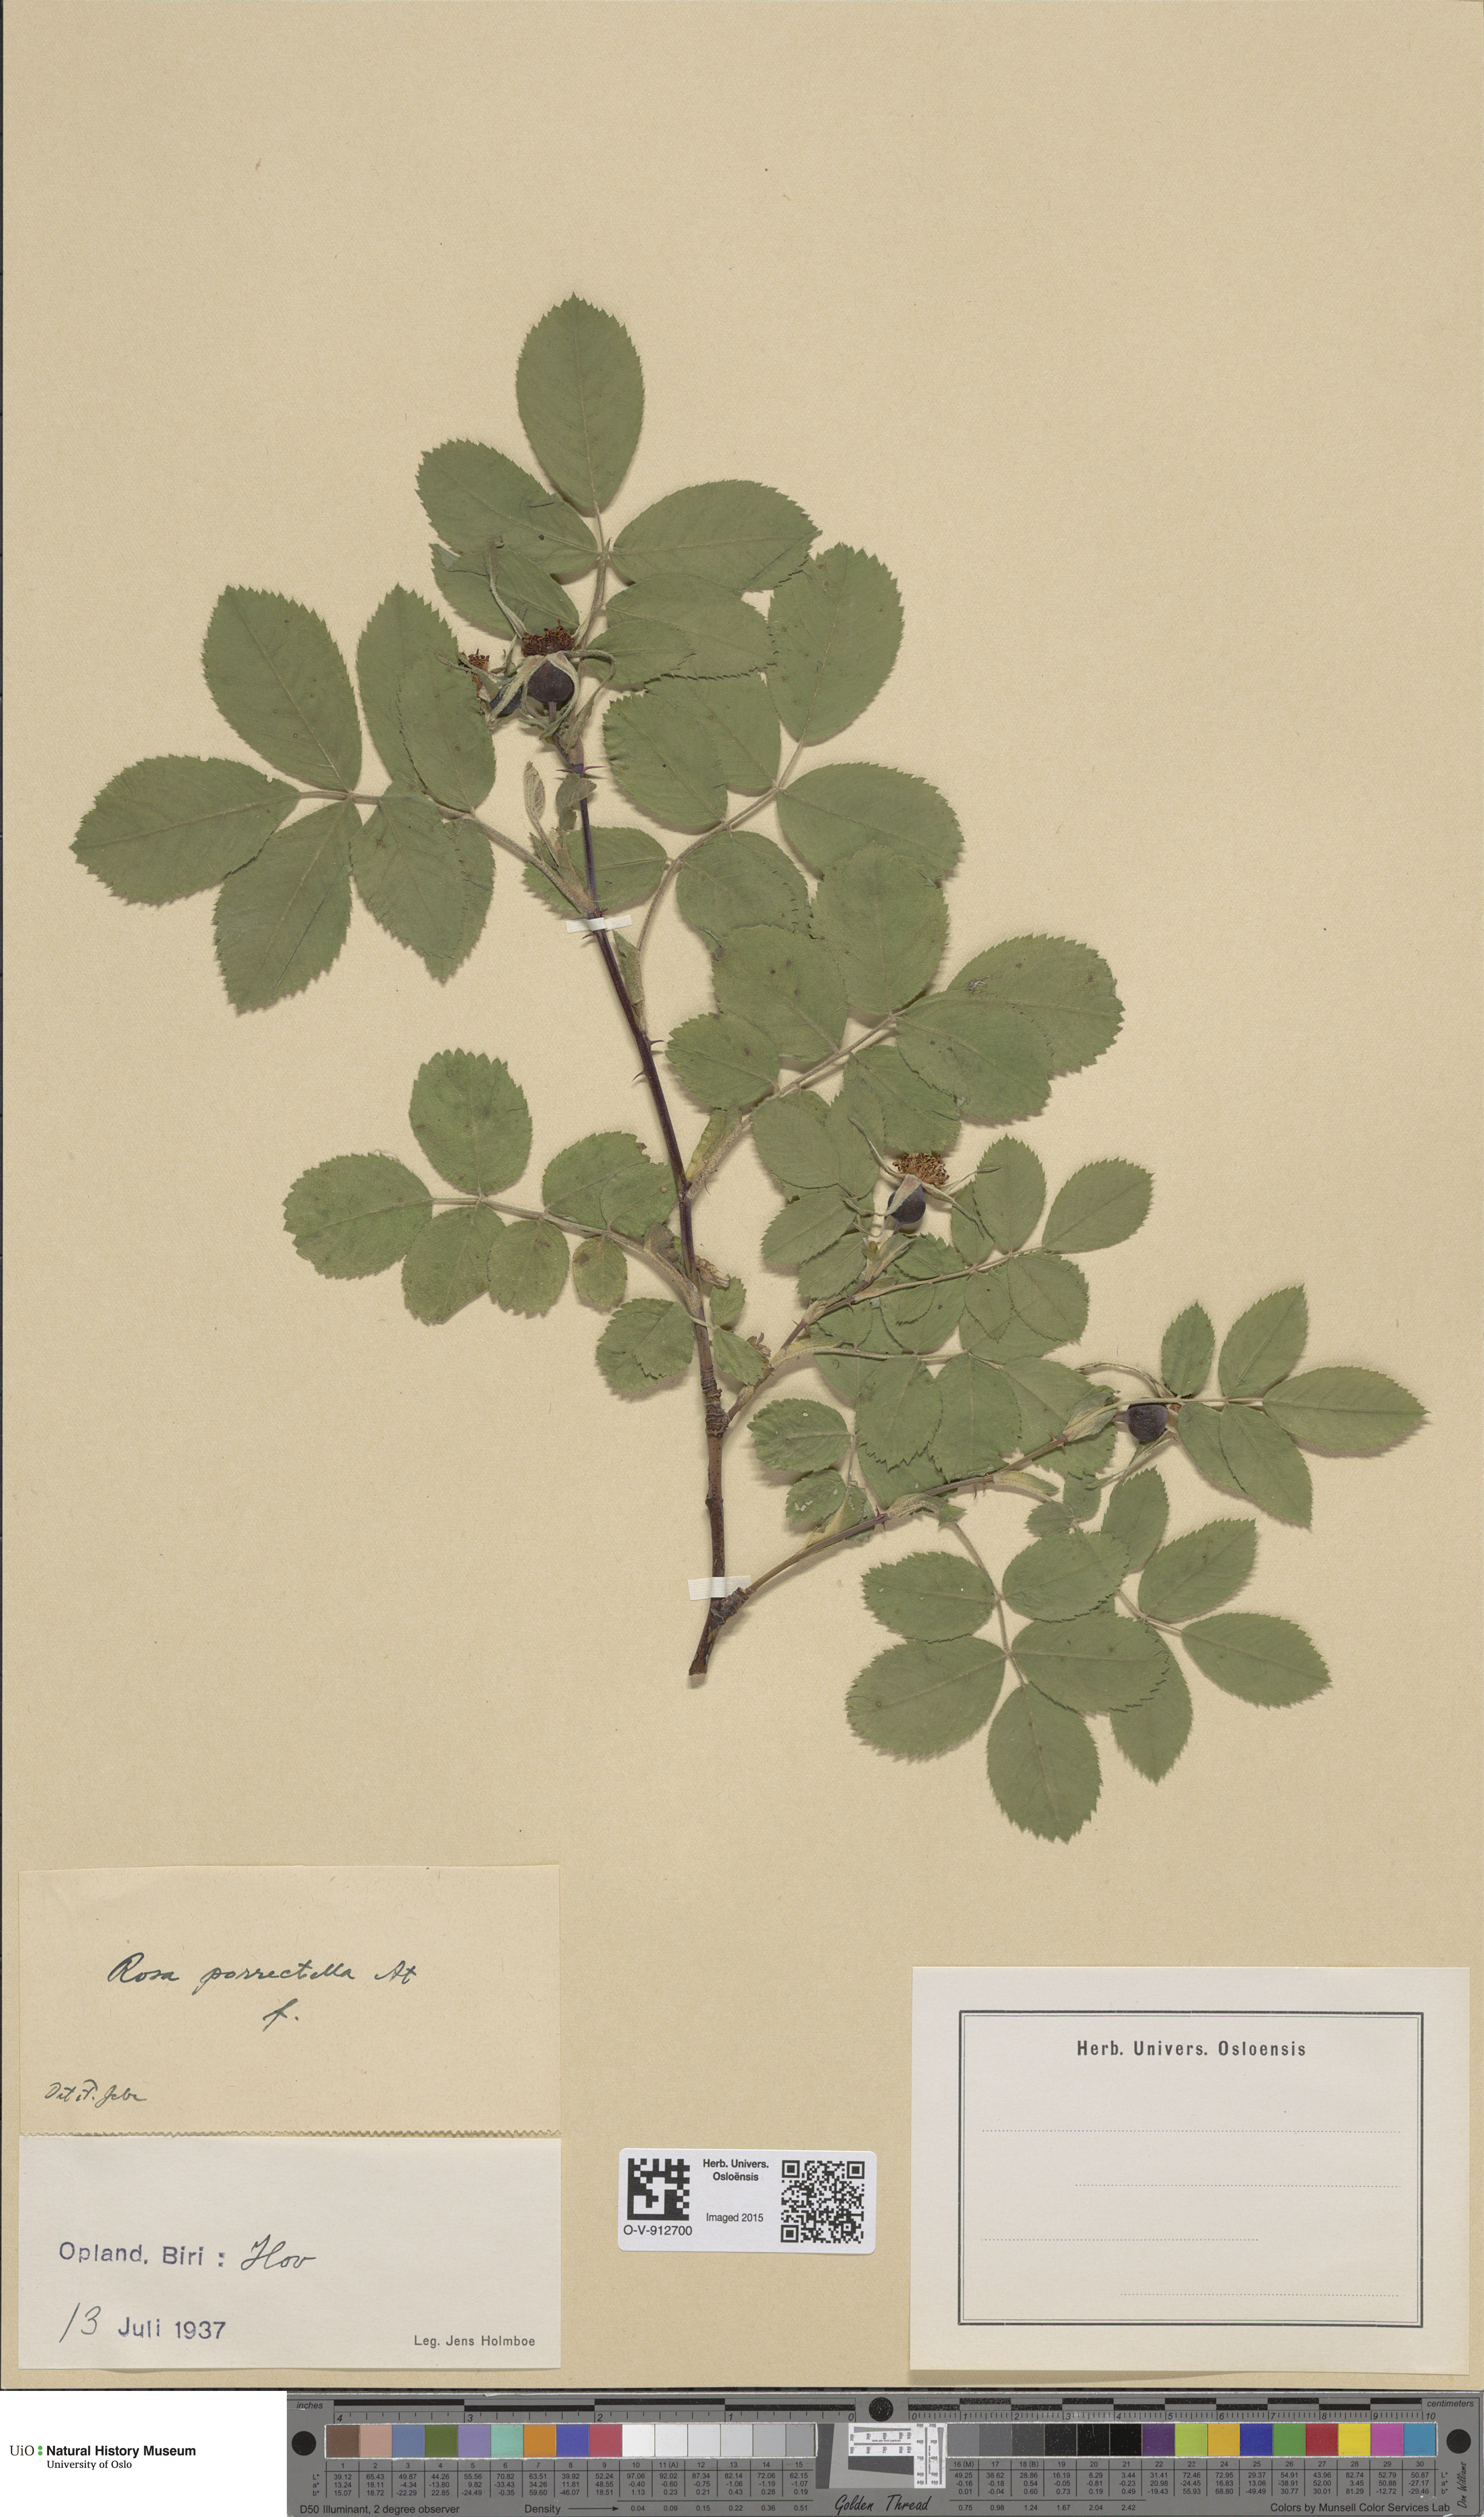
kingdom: Plantae
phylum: Tracheophyta
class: Magnoliopsida
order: Rosales
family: Rosaceae
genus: Rosa
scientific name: Rosa mollis
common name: Rose
